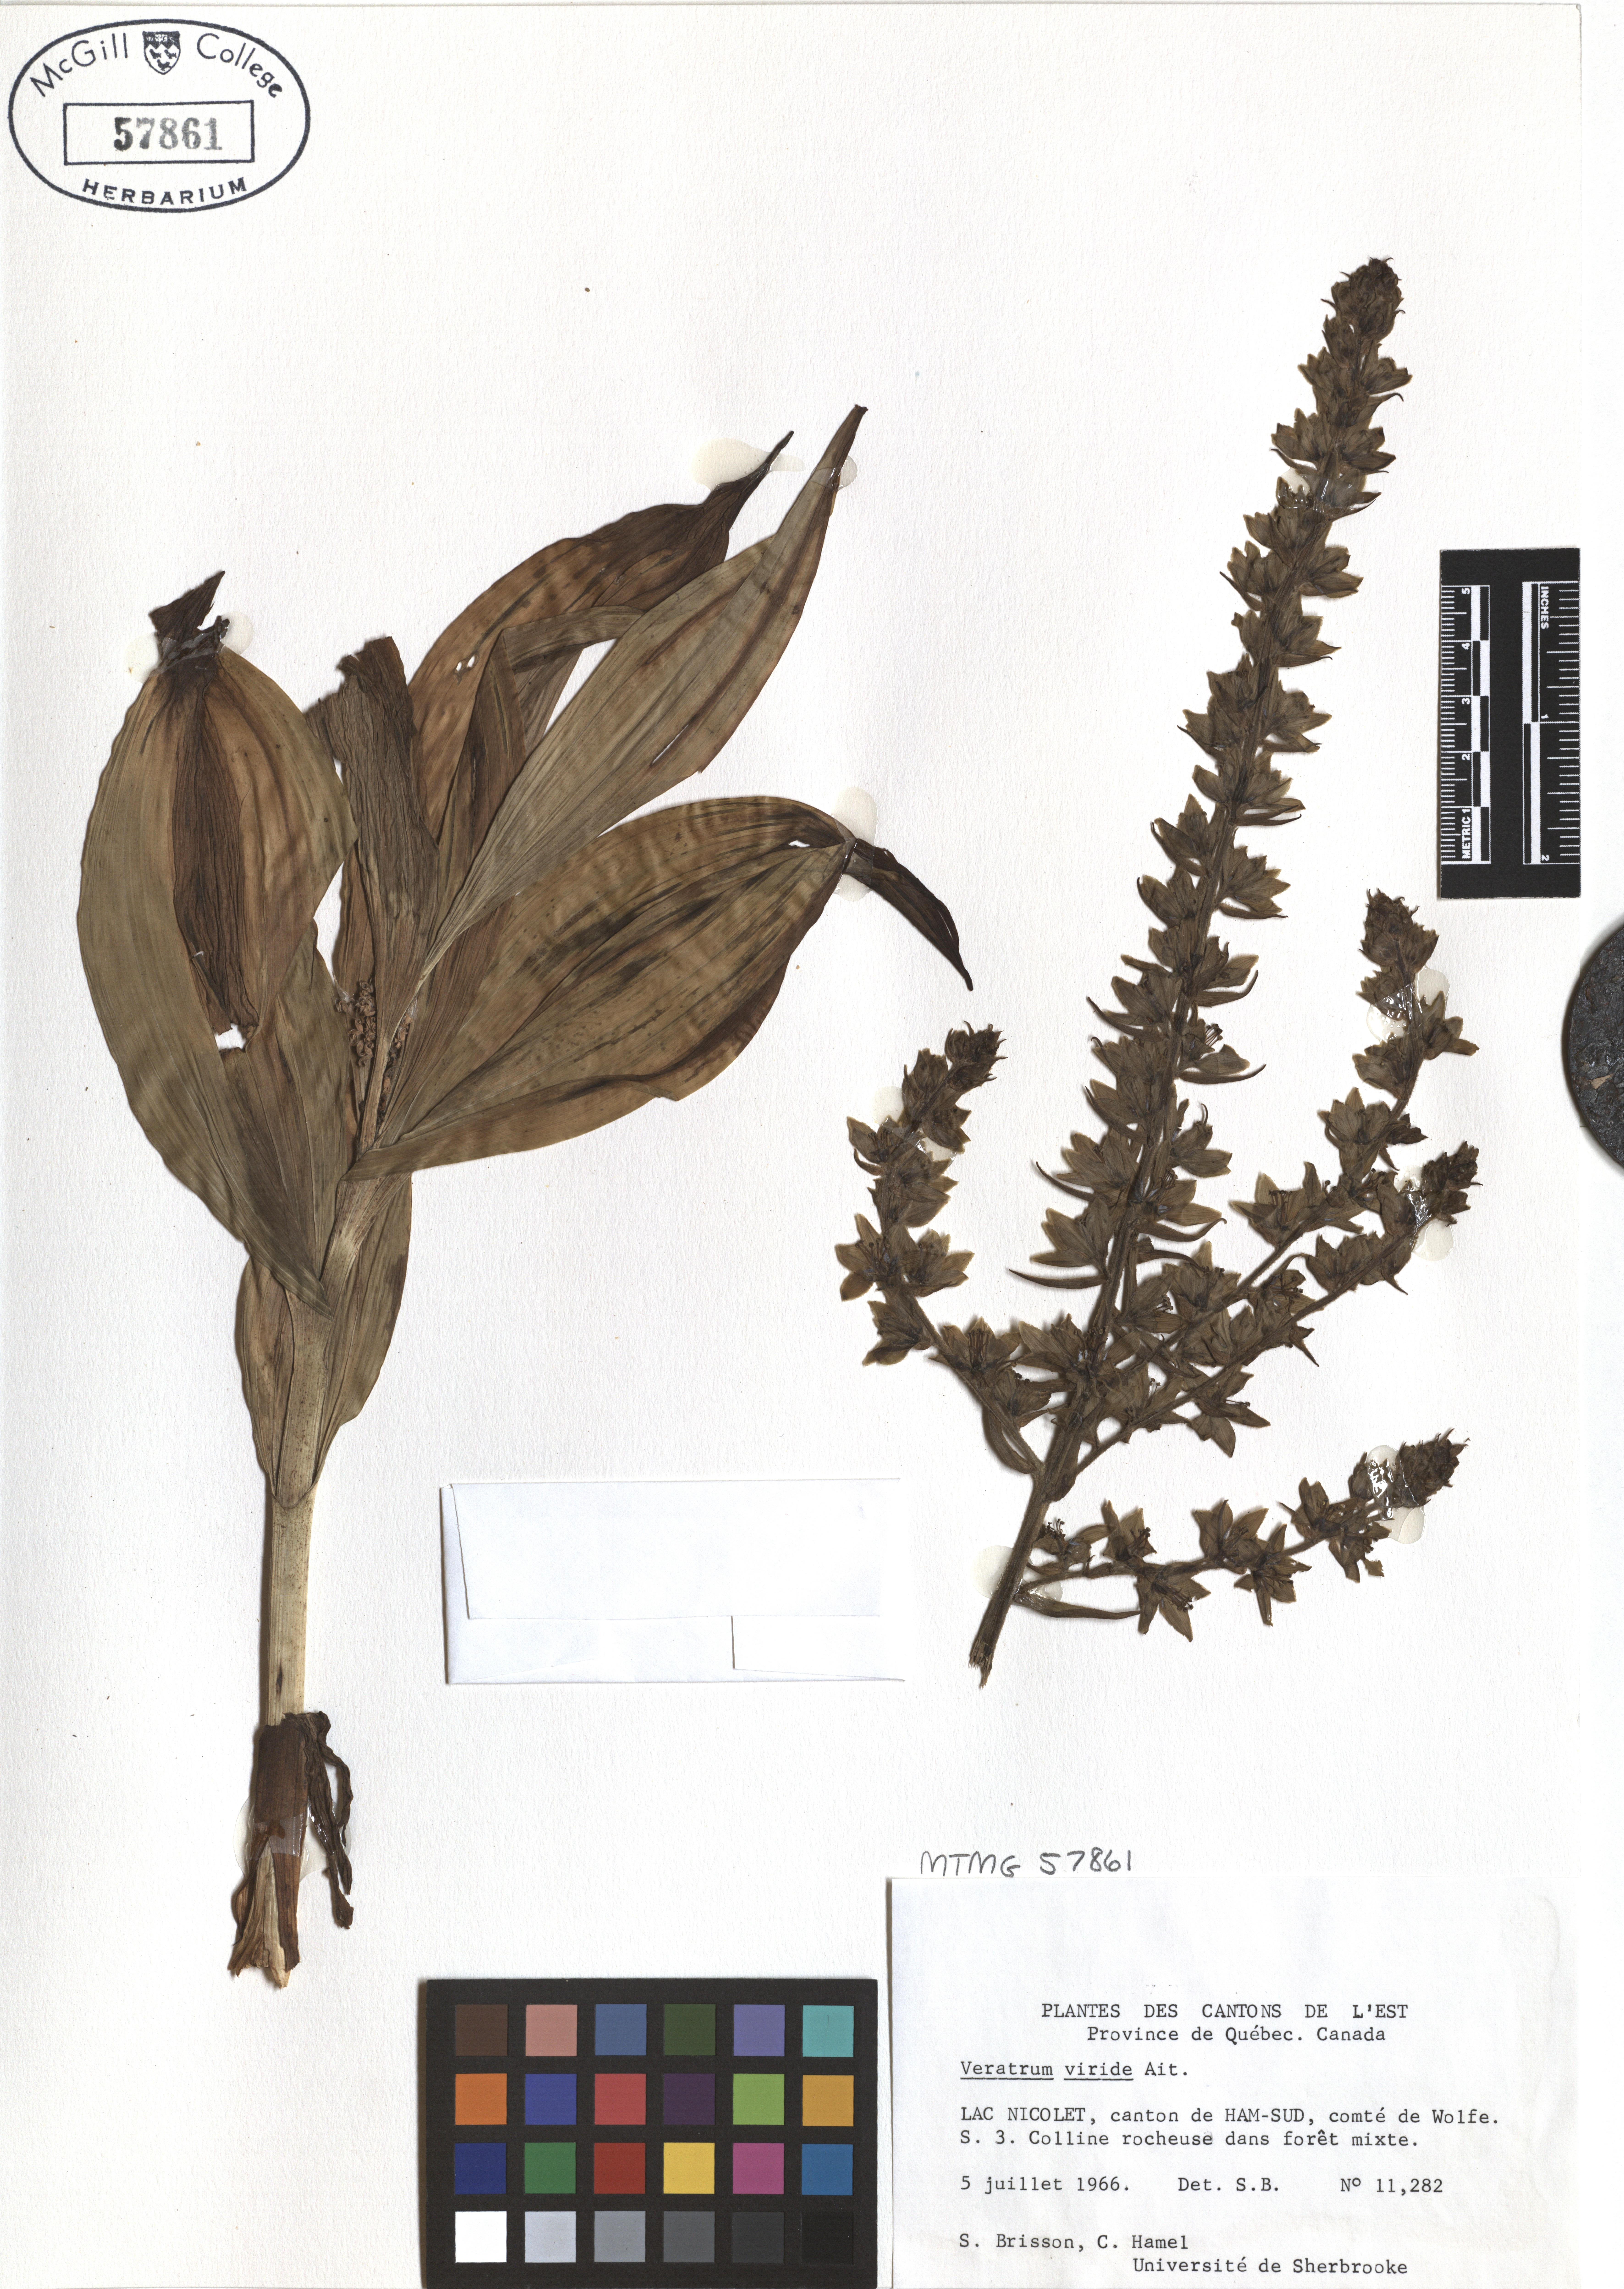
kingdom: Plantae
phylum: Tracheophyta
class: Liliopsida
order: Liliales
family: Melanthiaceae
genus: Veratrum
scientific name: Veratrum viride
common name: American false hellebore
